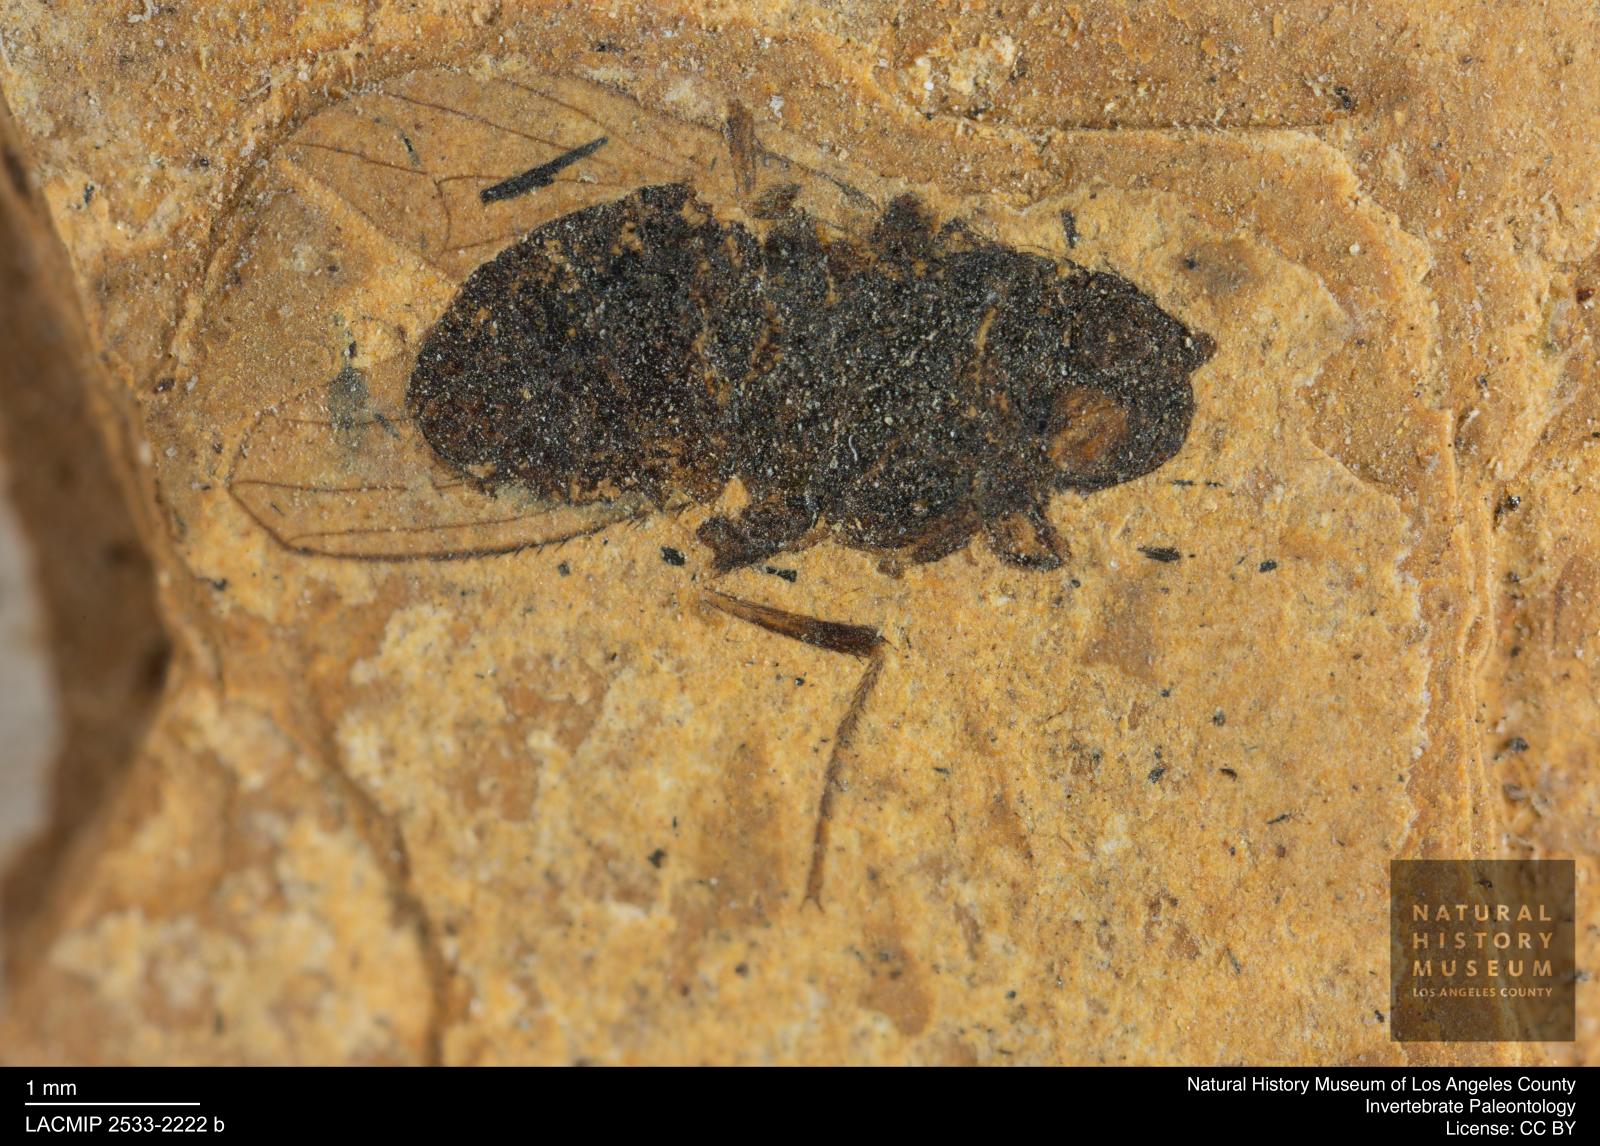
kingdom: Animalia
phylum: Arthropoda
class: Insecta
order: Diptera
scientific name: Diptera
